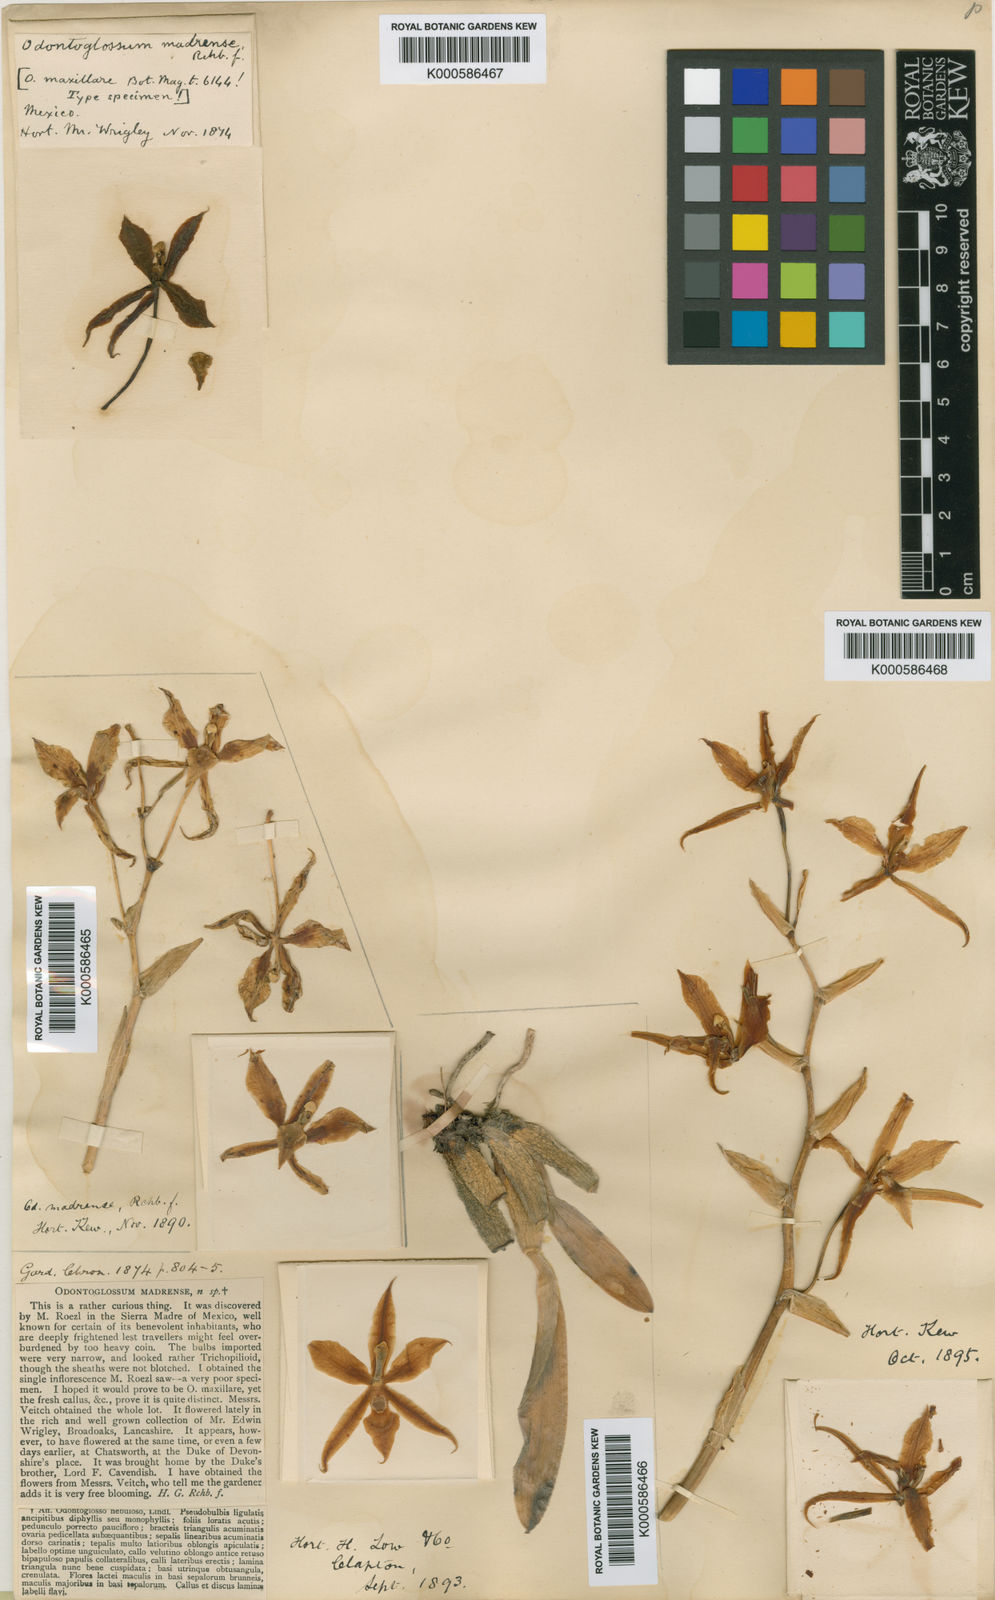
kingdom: Plantae
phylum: Tracheophyta
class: Liliopsida
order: Asparagales
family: Orchidaceae
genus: Rhynchostele
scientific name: Rhynchostele madrensis
